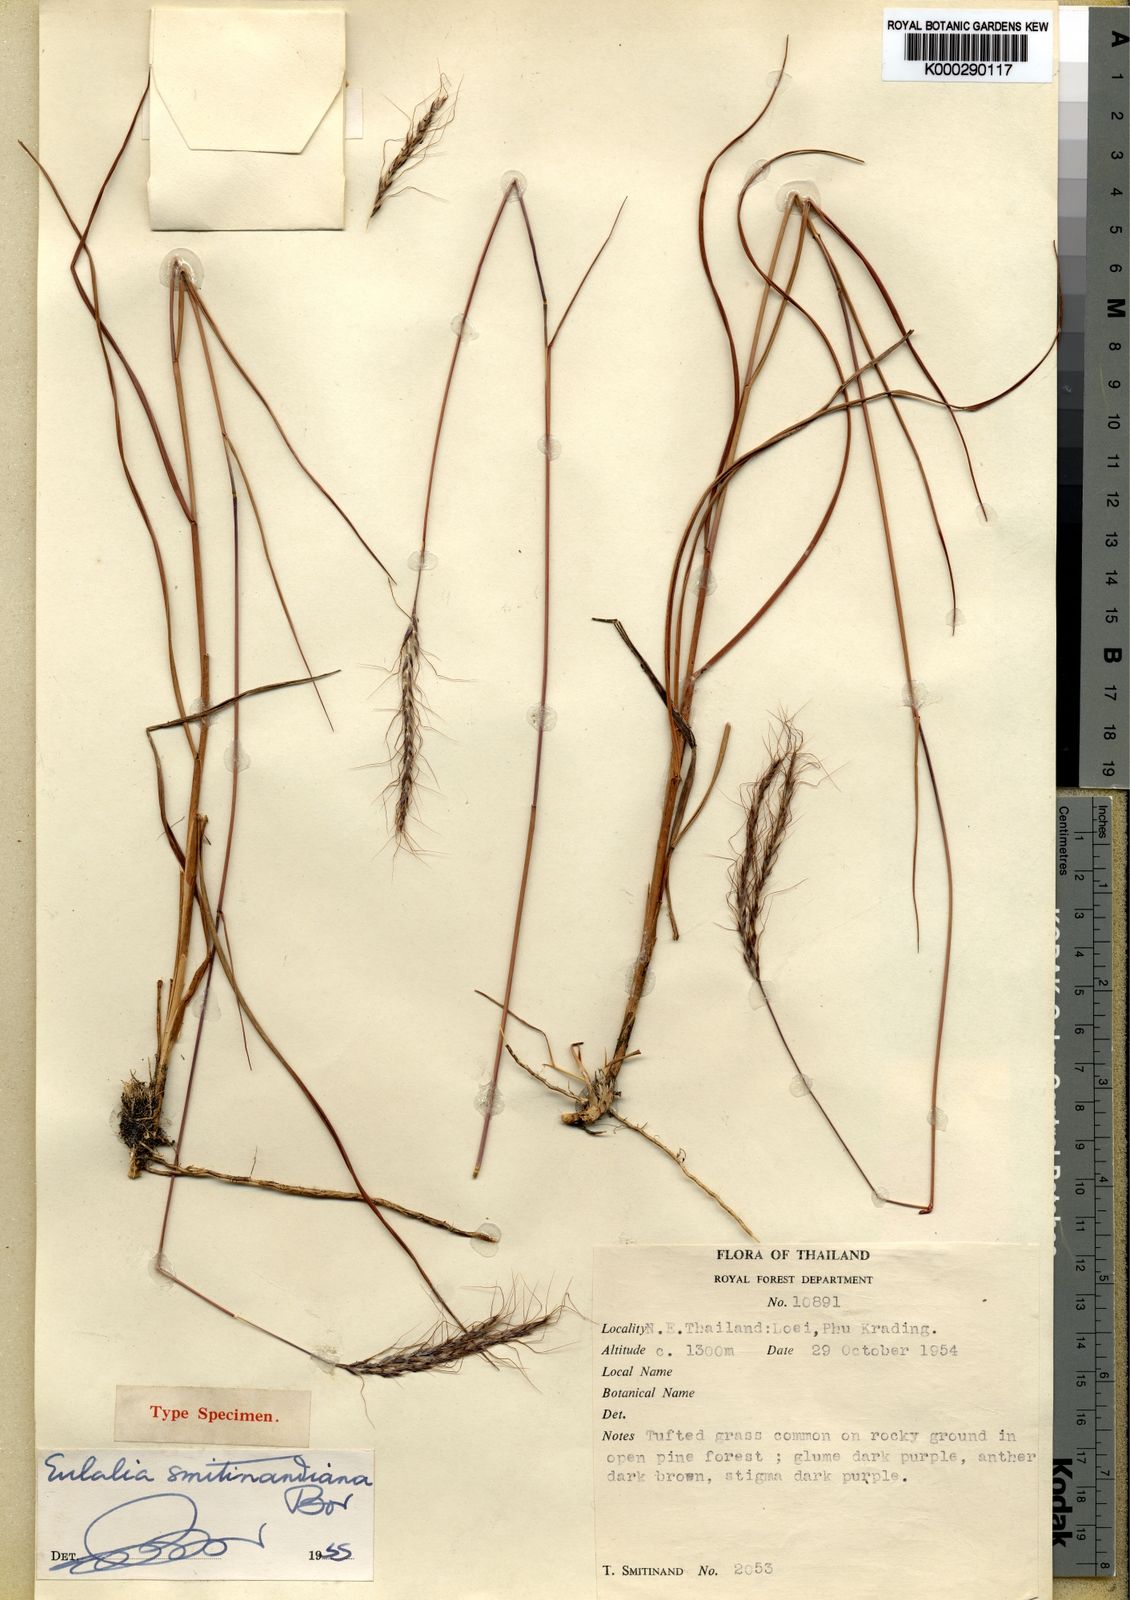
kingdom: Plantae
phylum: Tracheophyta
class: Liliopsida
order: Poales
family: Poaceae
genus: Eulalia
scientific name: Eulalia smitinandiana
